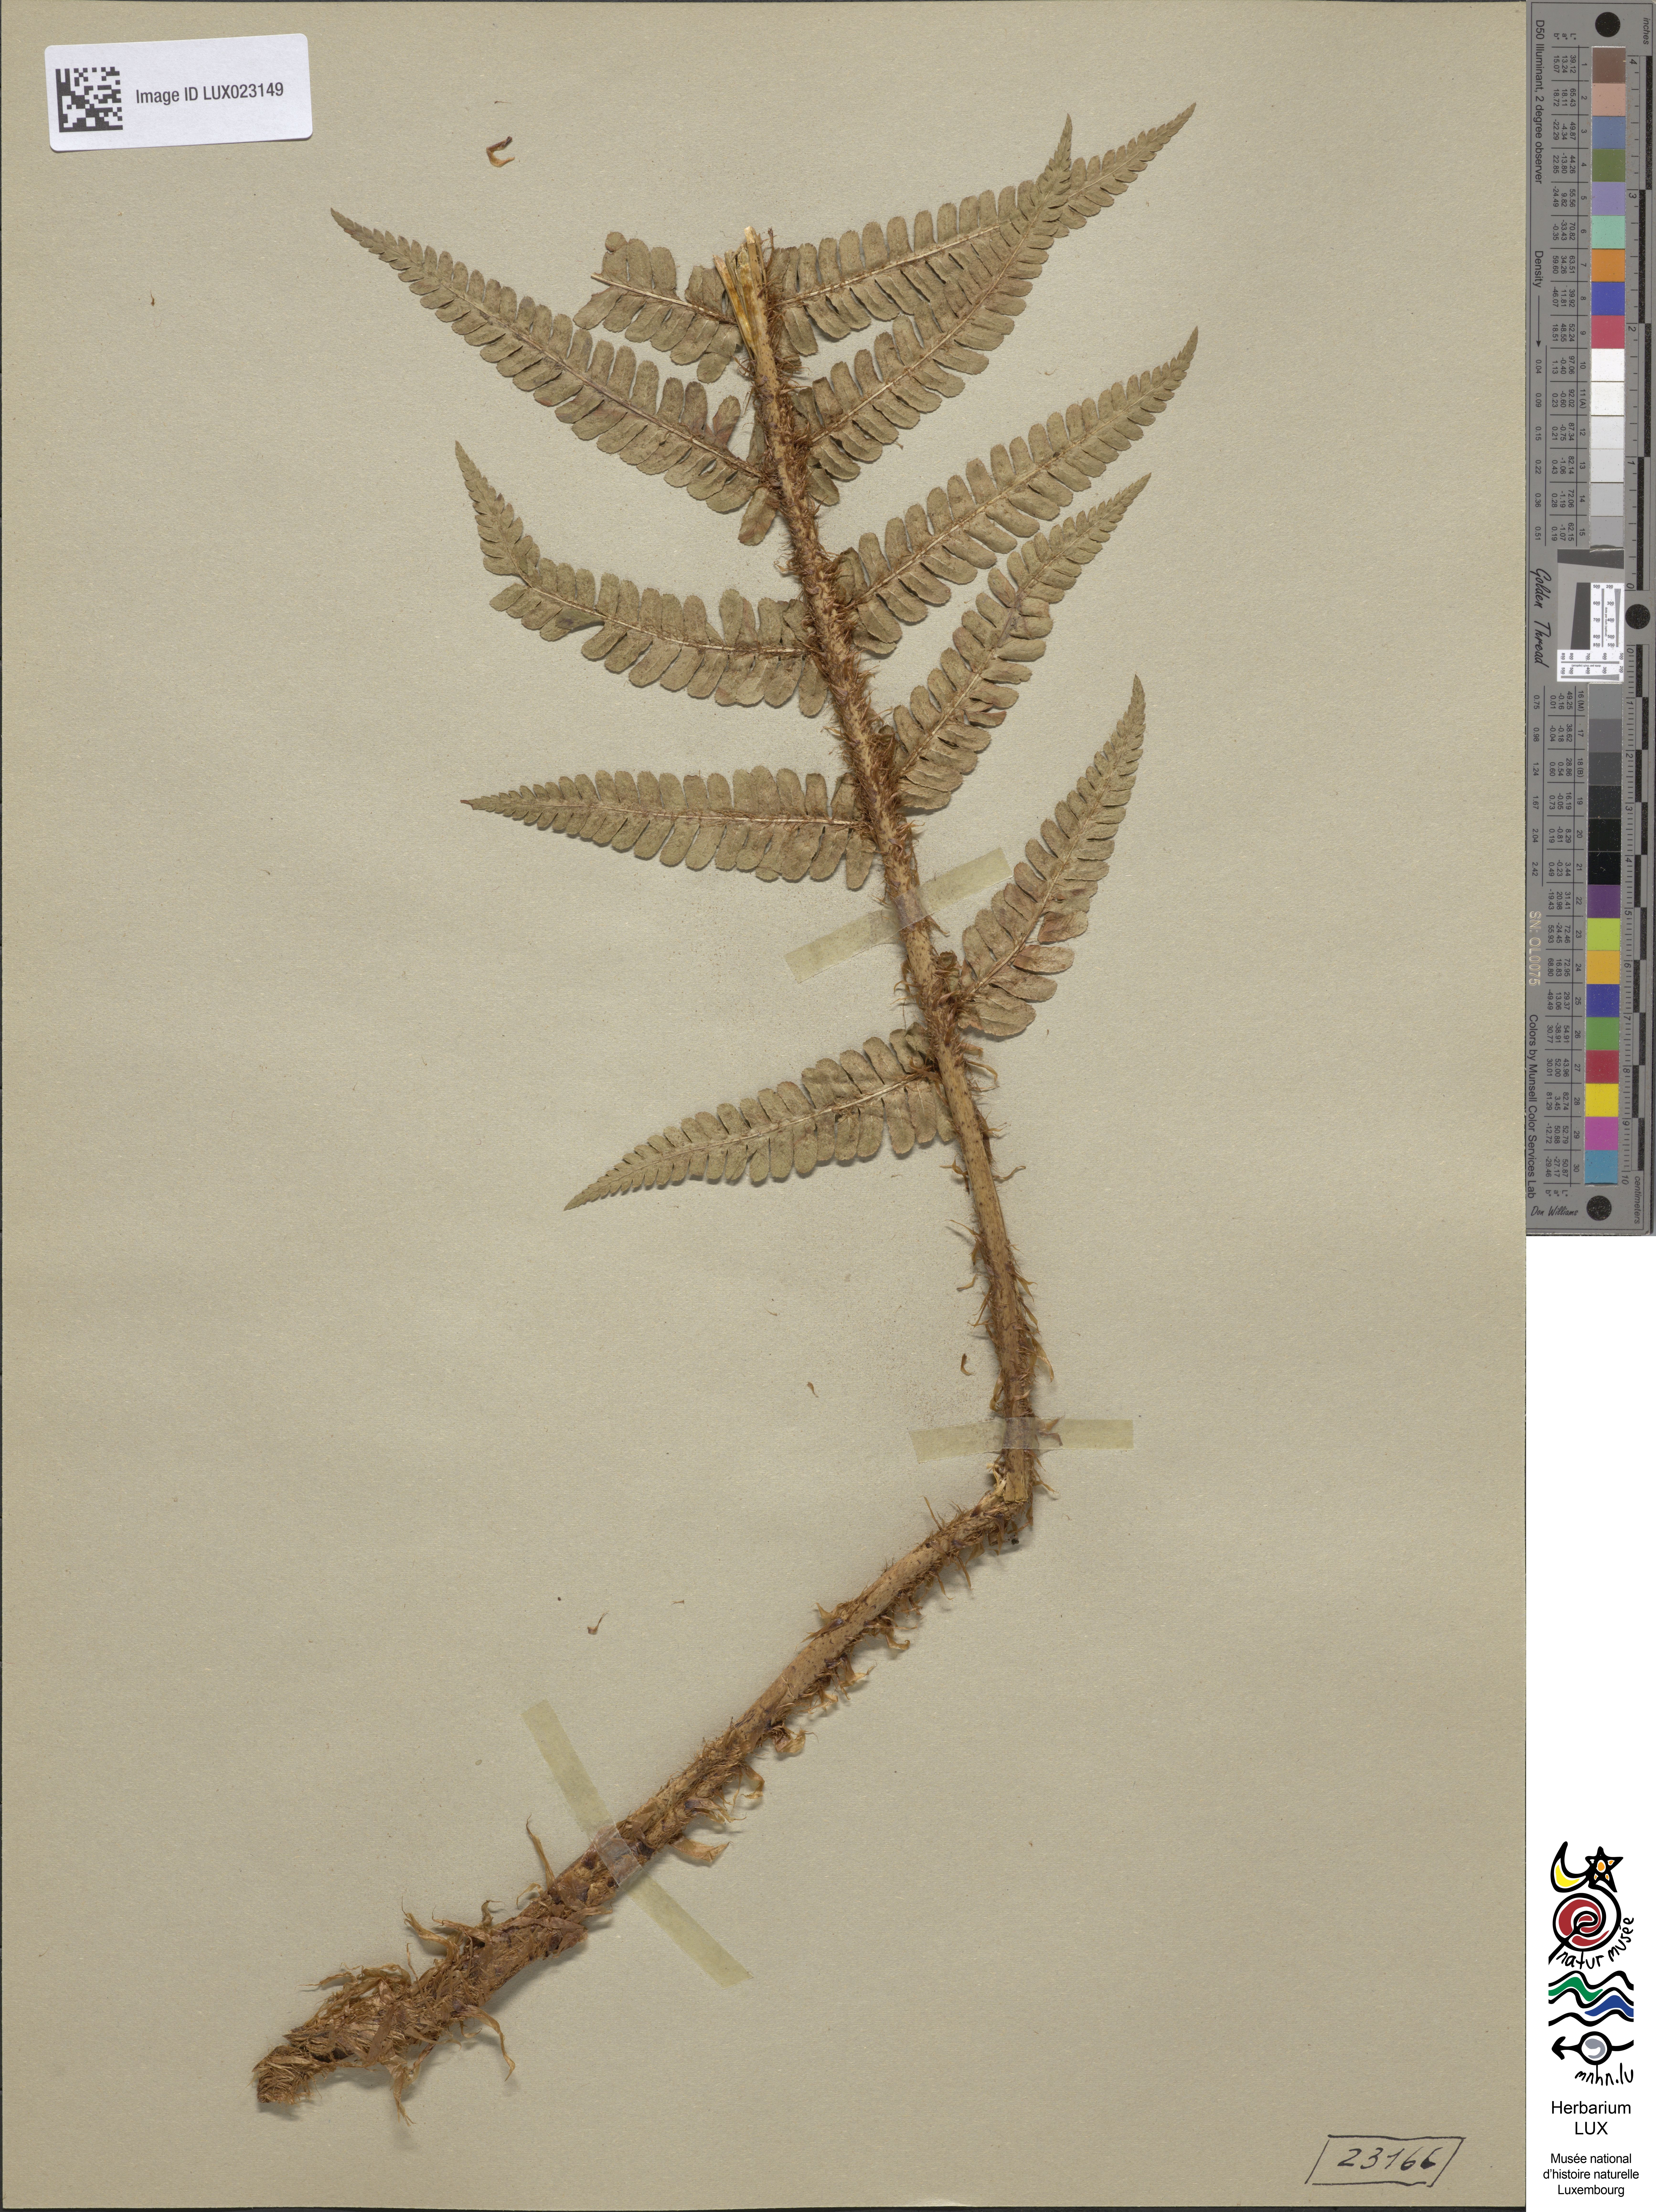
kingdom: Plantae
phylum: Tracheophyta
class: Polypodiopsida
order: Polypodiales
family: Dryopteridaceae
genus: Dryopteris
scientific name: Dryopteris paleacea
